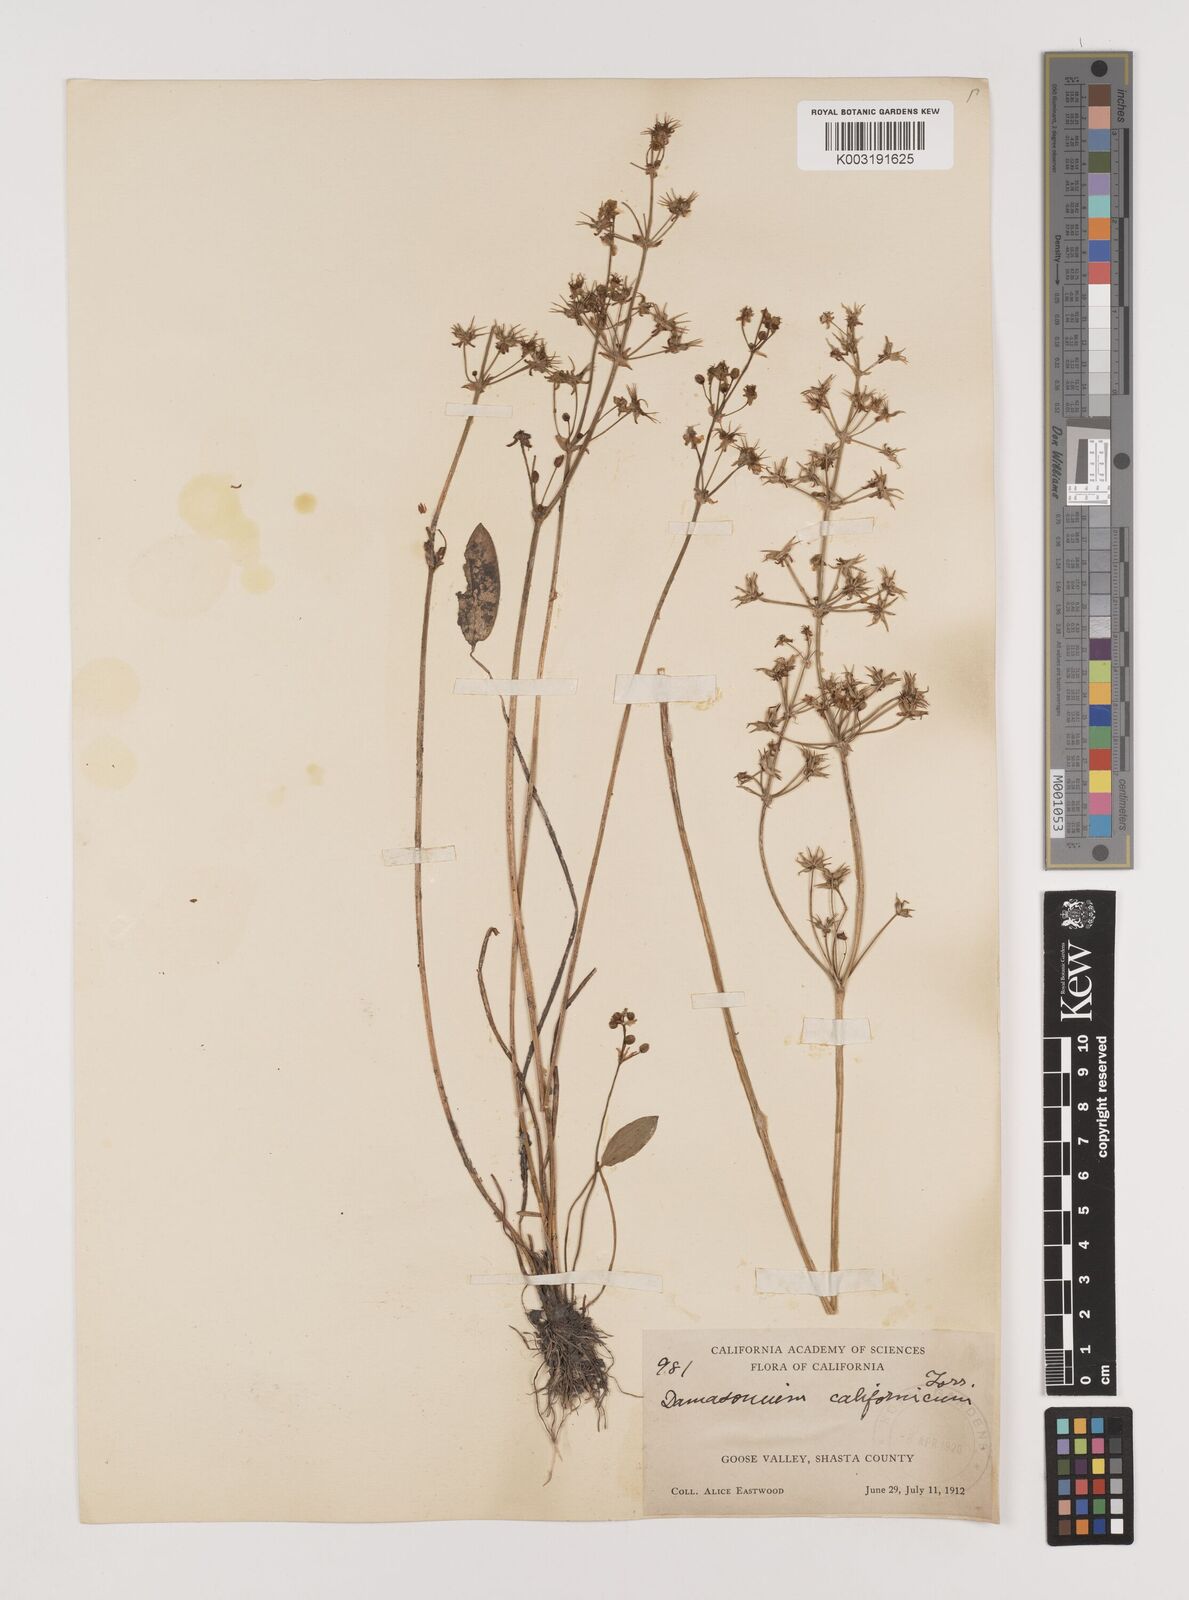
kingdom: Plantae
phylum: Tracheophyta
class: Liliopsida
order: Alismatales
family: Alismataceae
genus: Damasonium
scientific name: Damasonium
